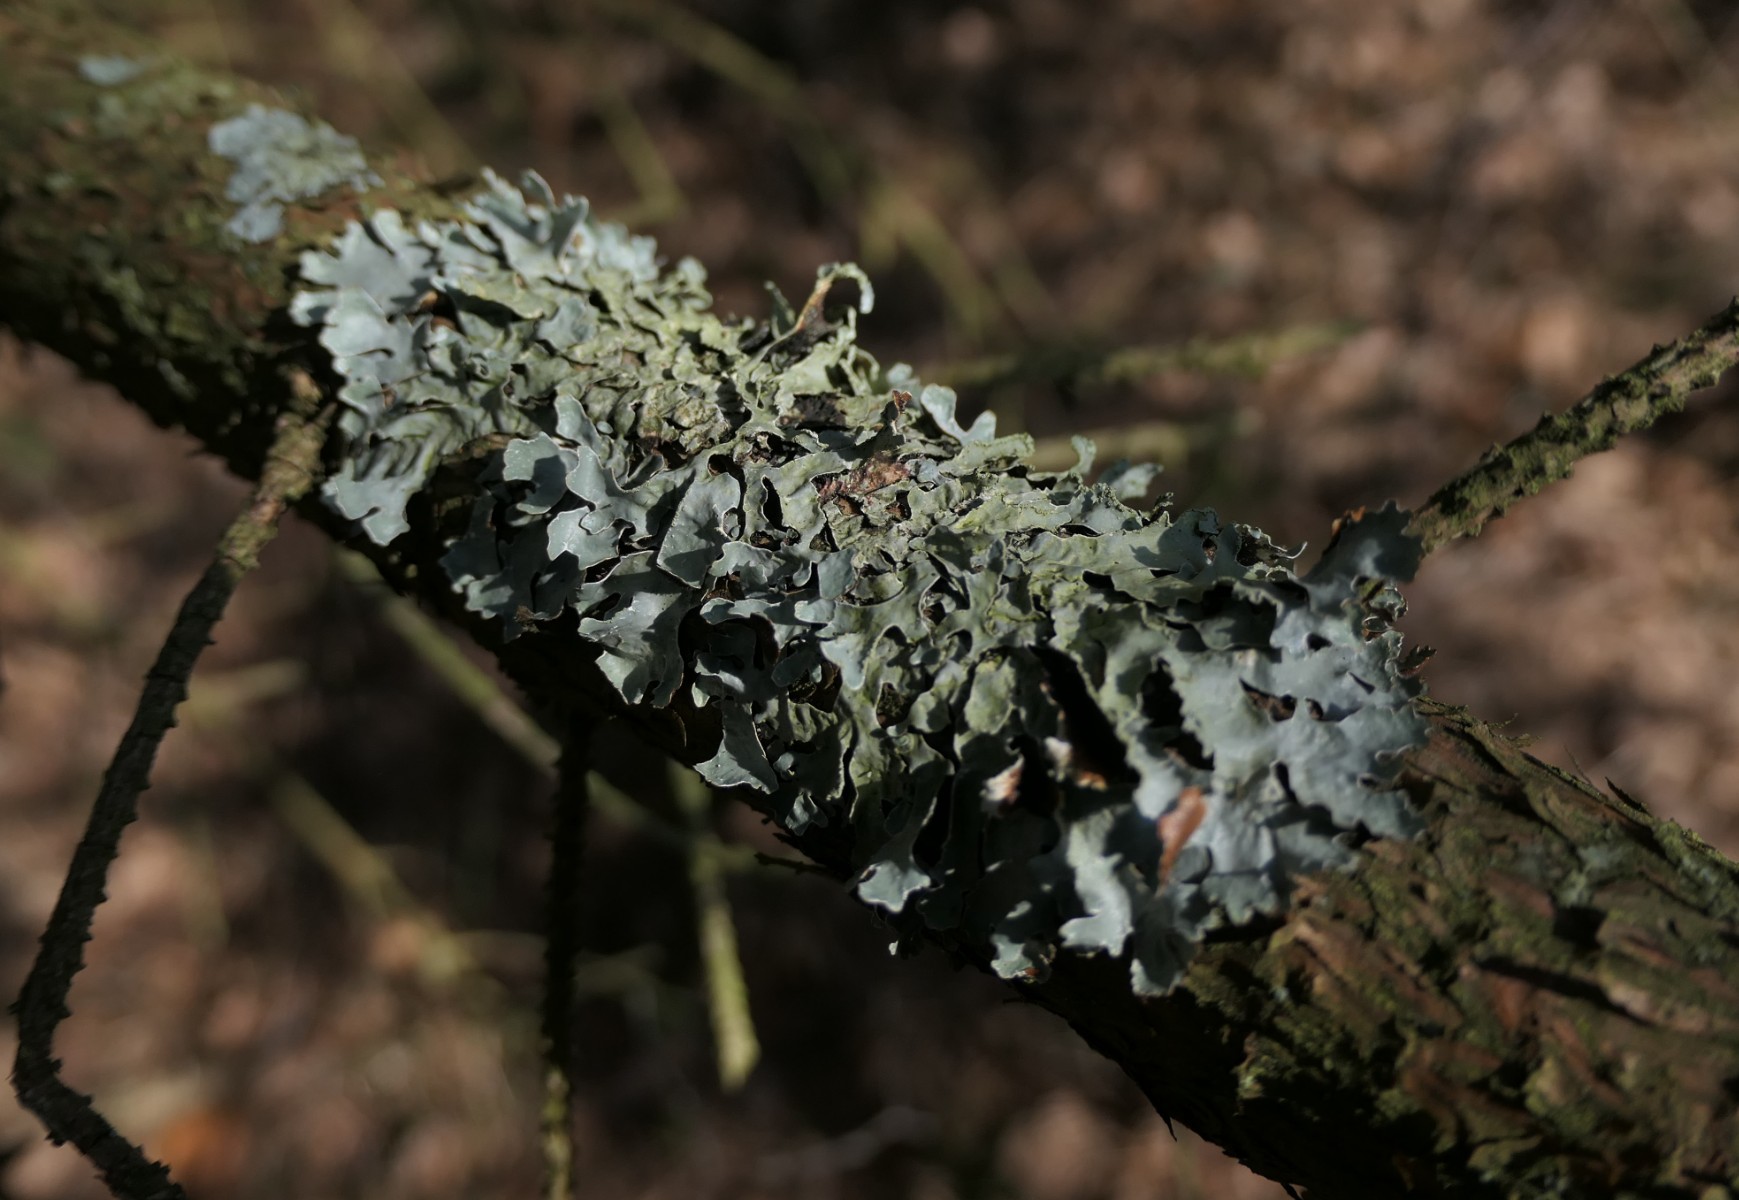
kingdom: Fungi
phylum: Ascomycota
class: Lecanoromycetes
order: Lecanorales
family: Parmeliaceae
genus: Parmelia
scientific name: Parmelia sulcata
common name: rynket skållav
